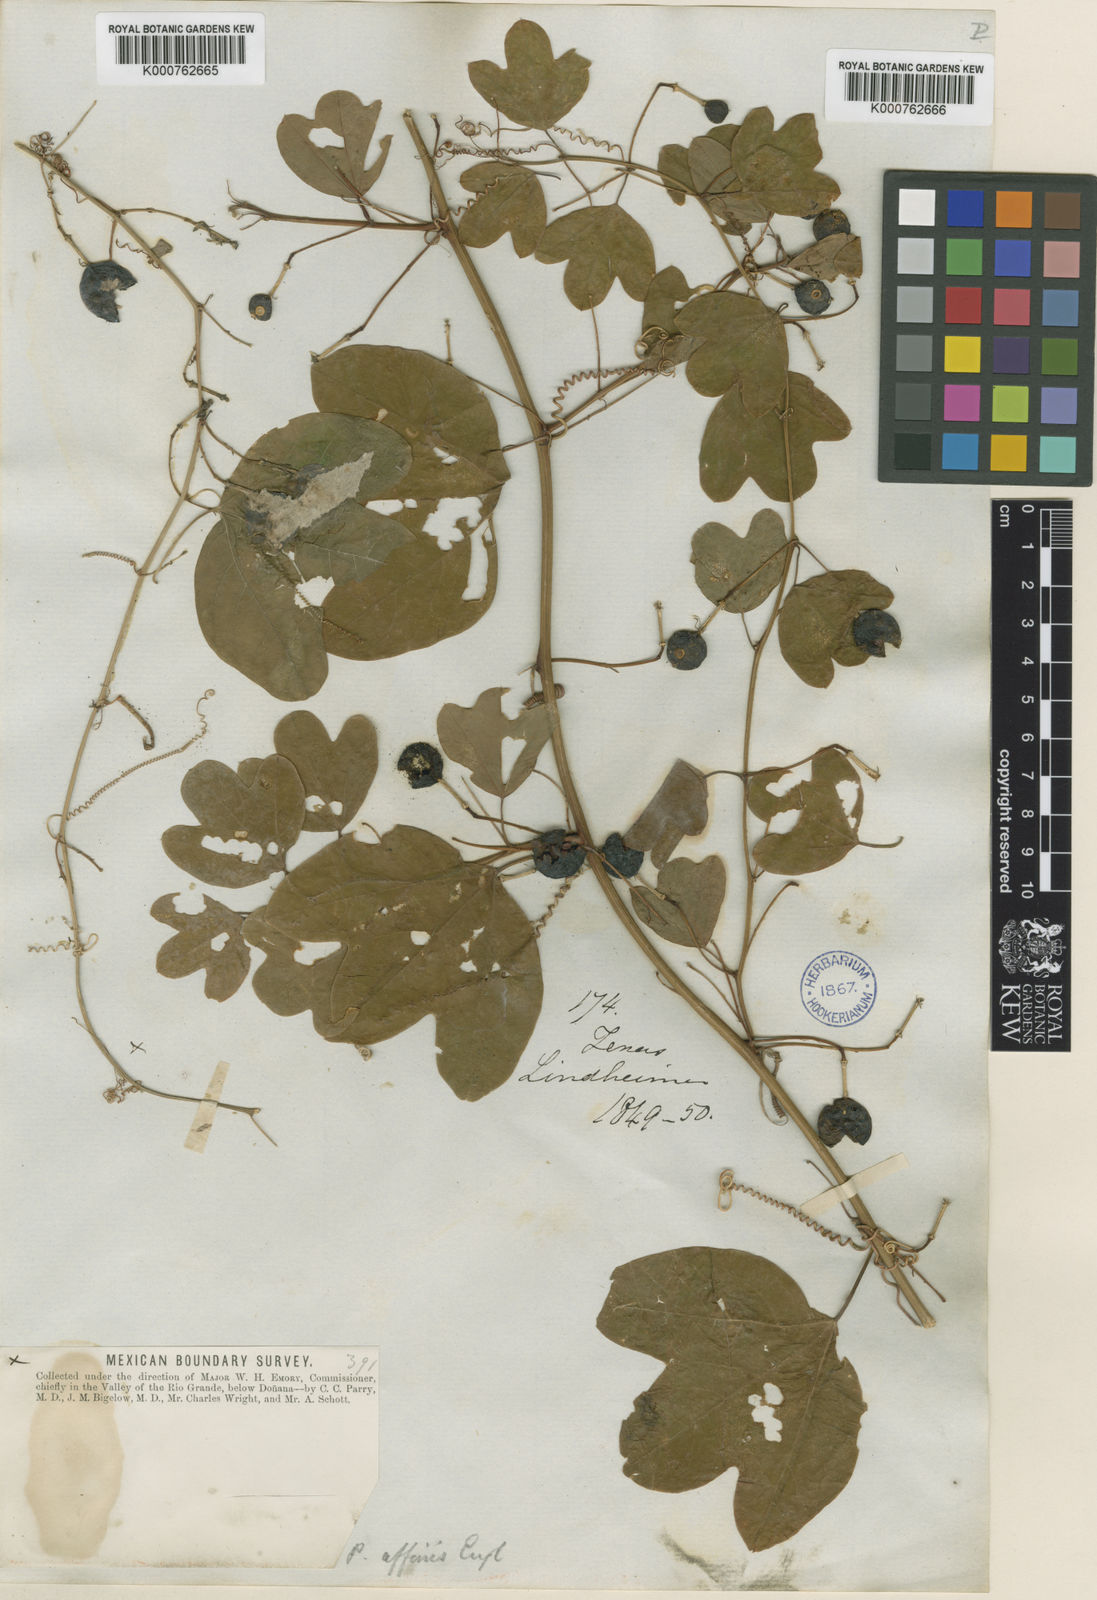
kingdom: Plantae
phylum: Tracheophyta
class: Magnoliopsida
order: Malpighiales
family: Passifloraceae
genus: Passiflora
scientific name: Passiflora affinis
